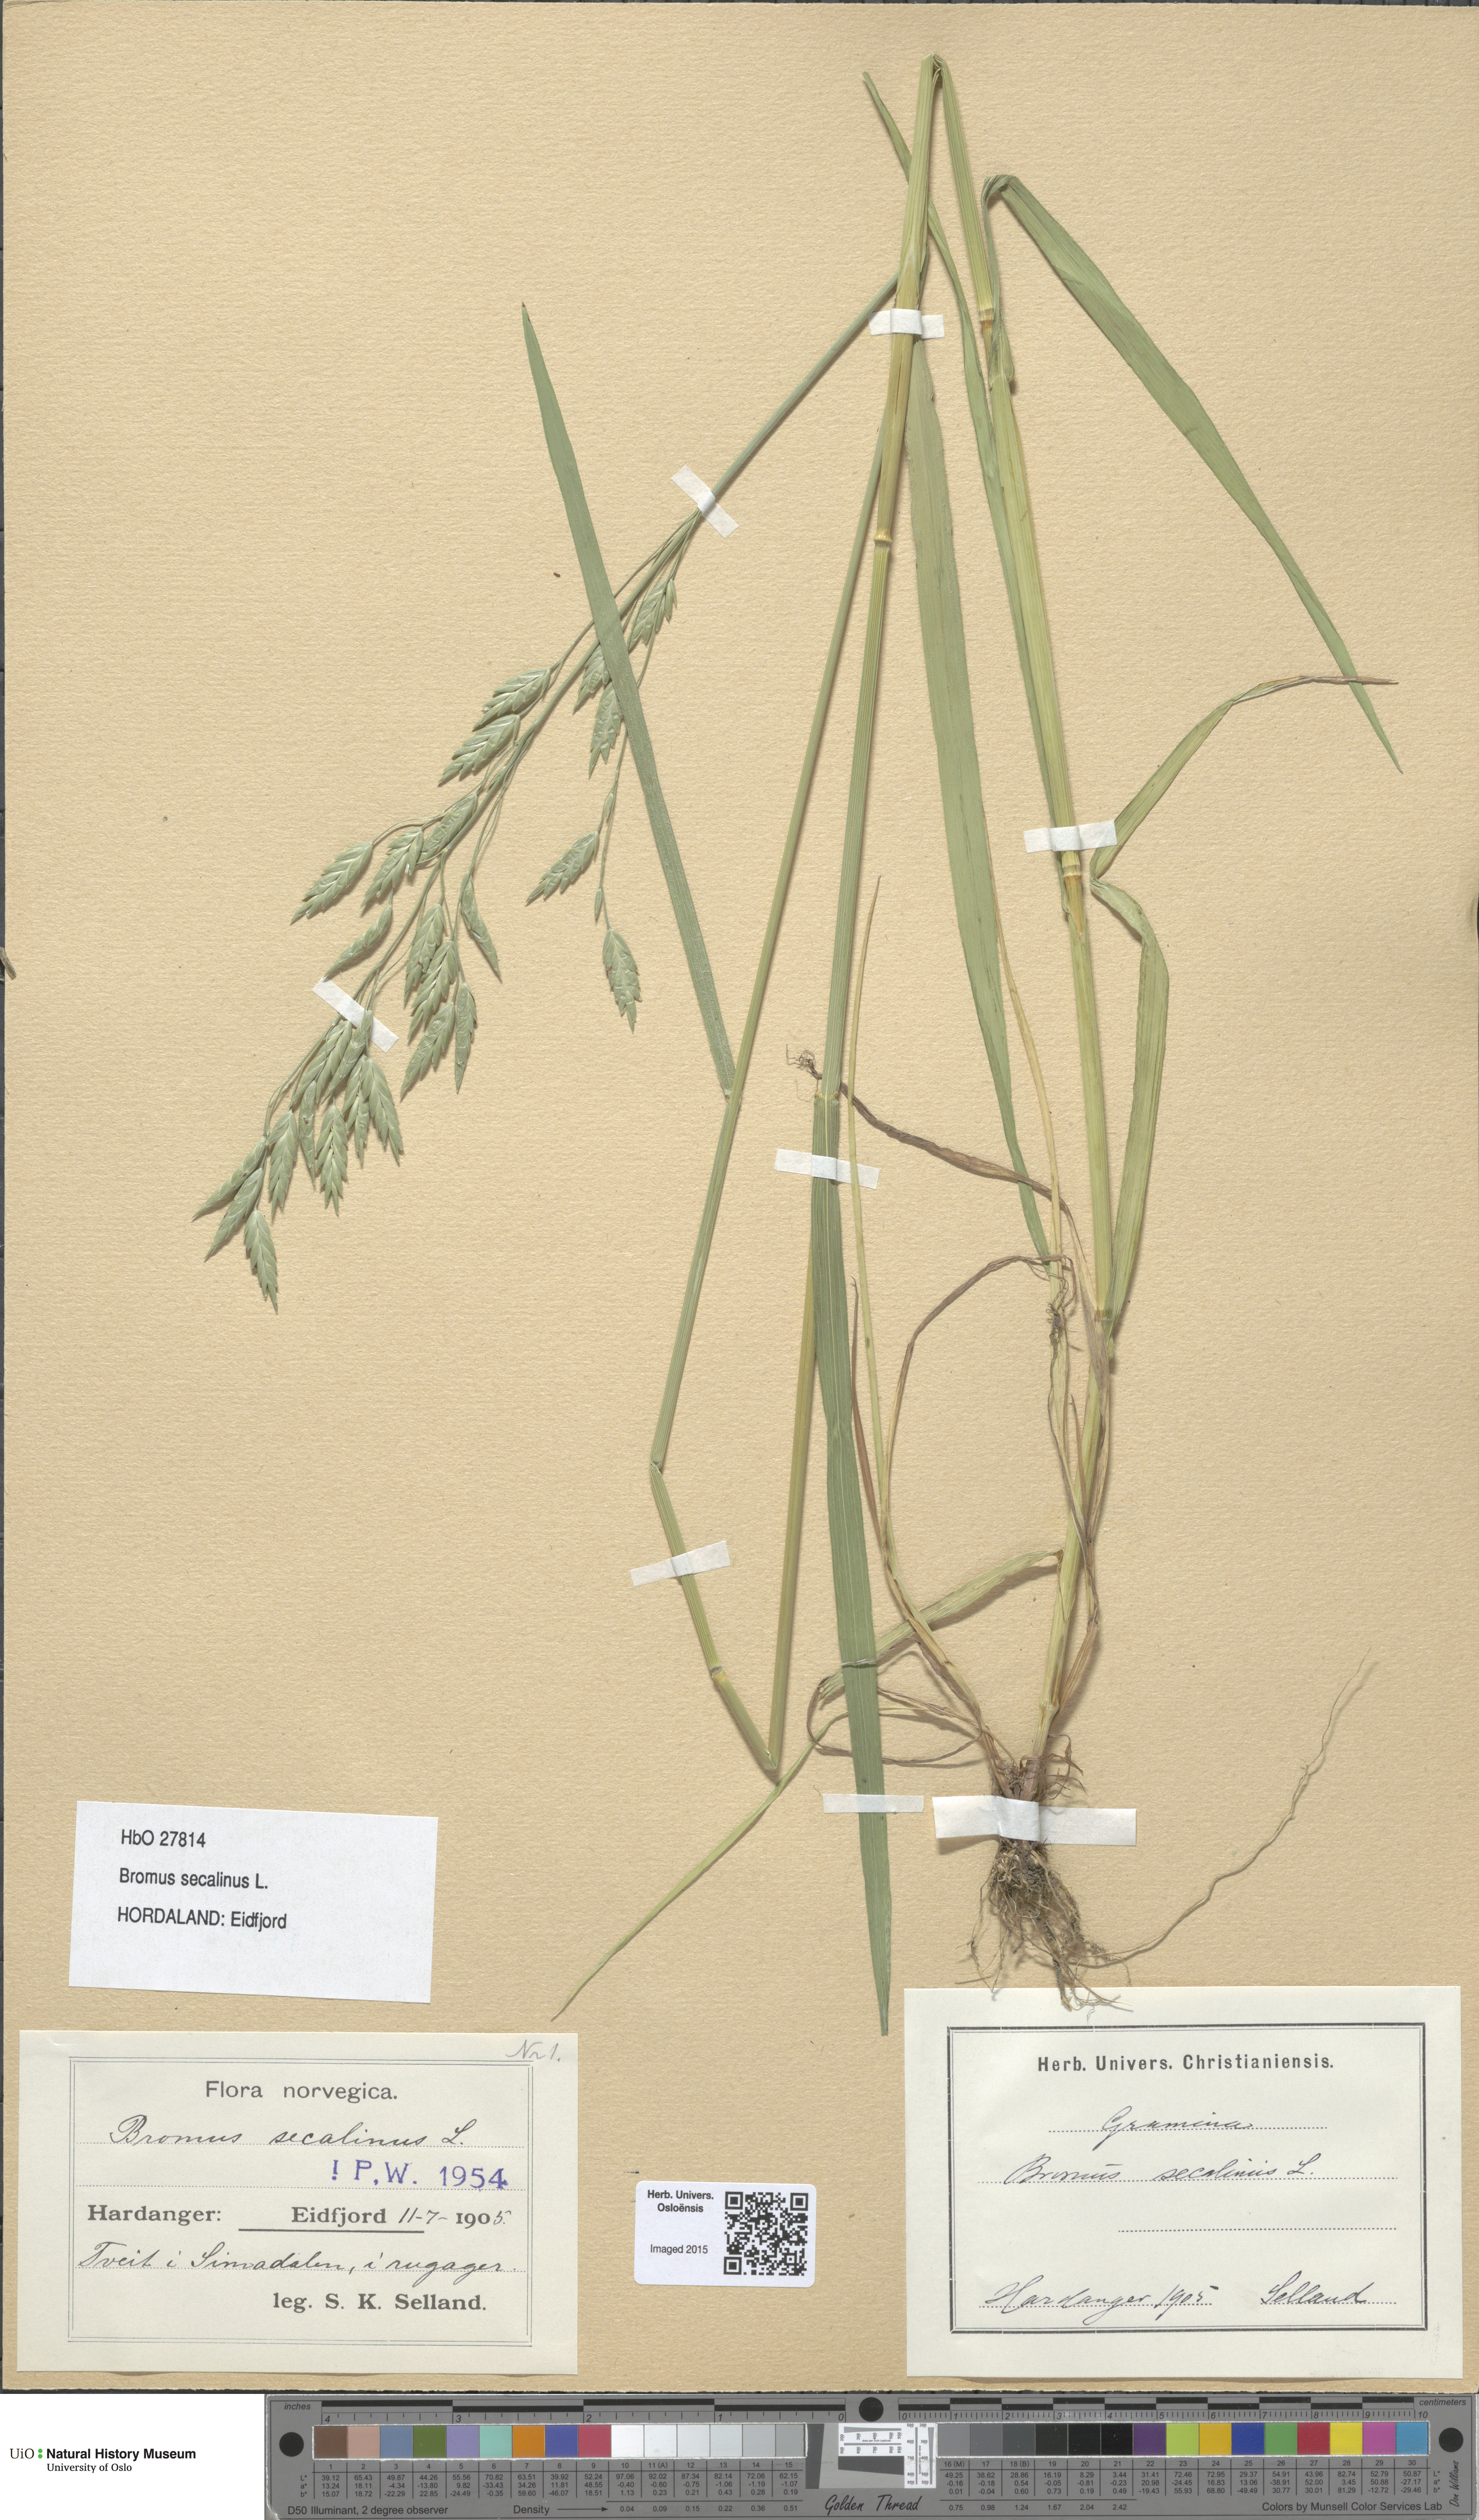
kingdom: Plantae
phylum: Tracheophyta
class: Liliopsida
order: Poales
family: Poaceae
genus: Bromus
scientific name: Bromus secalinus
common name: Rye brome
